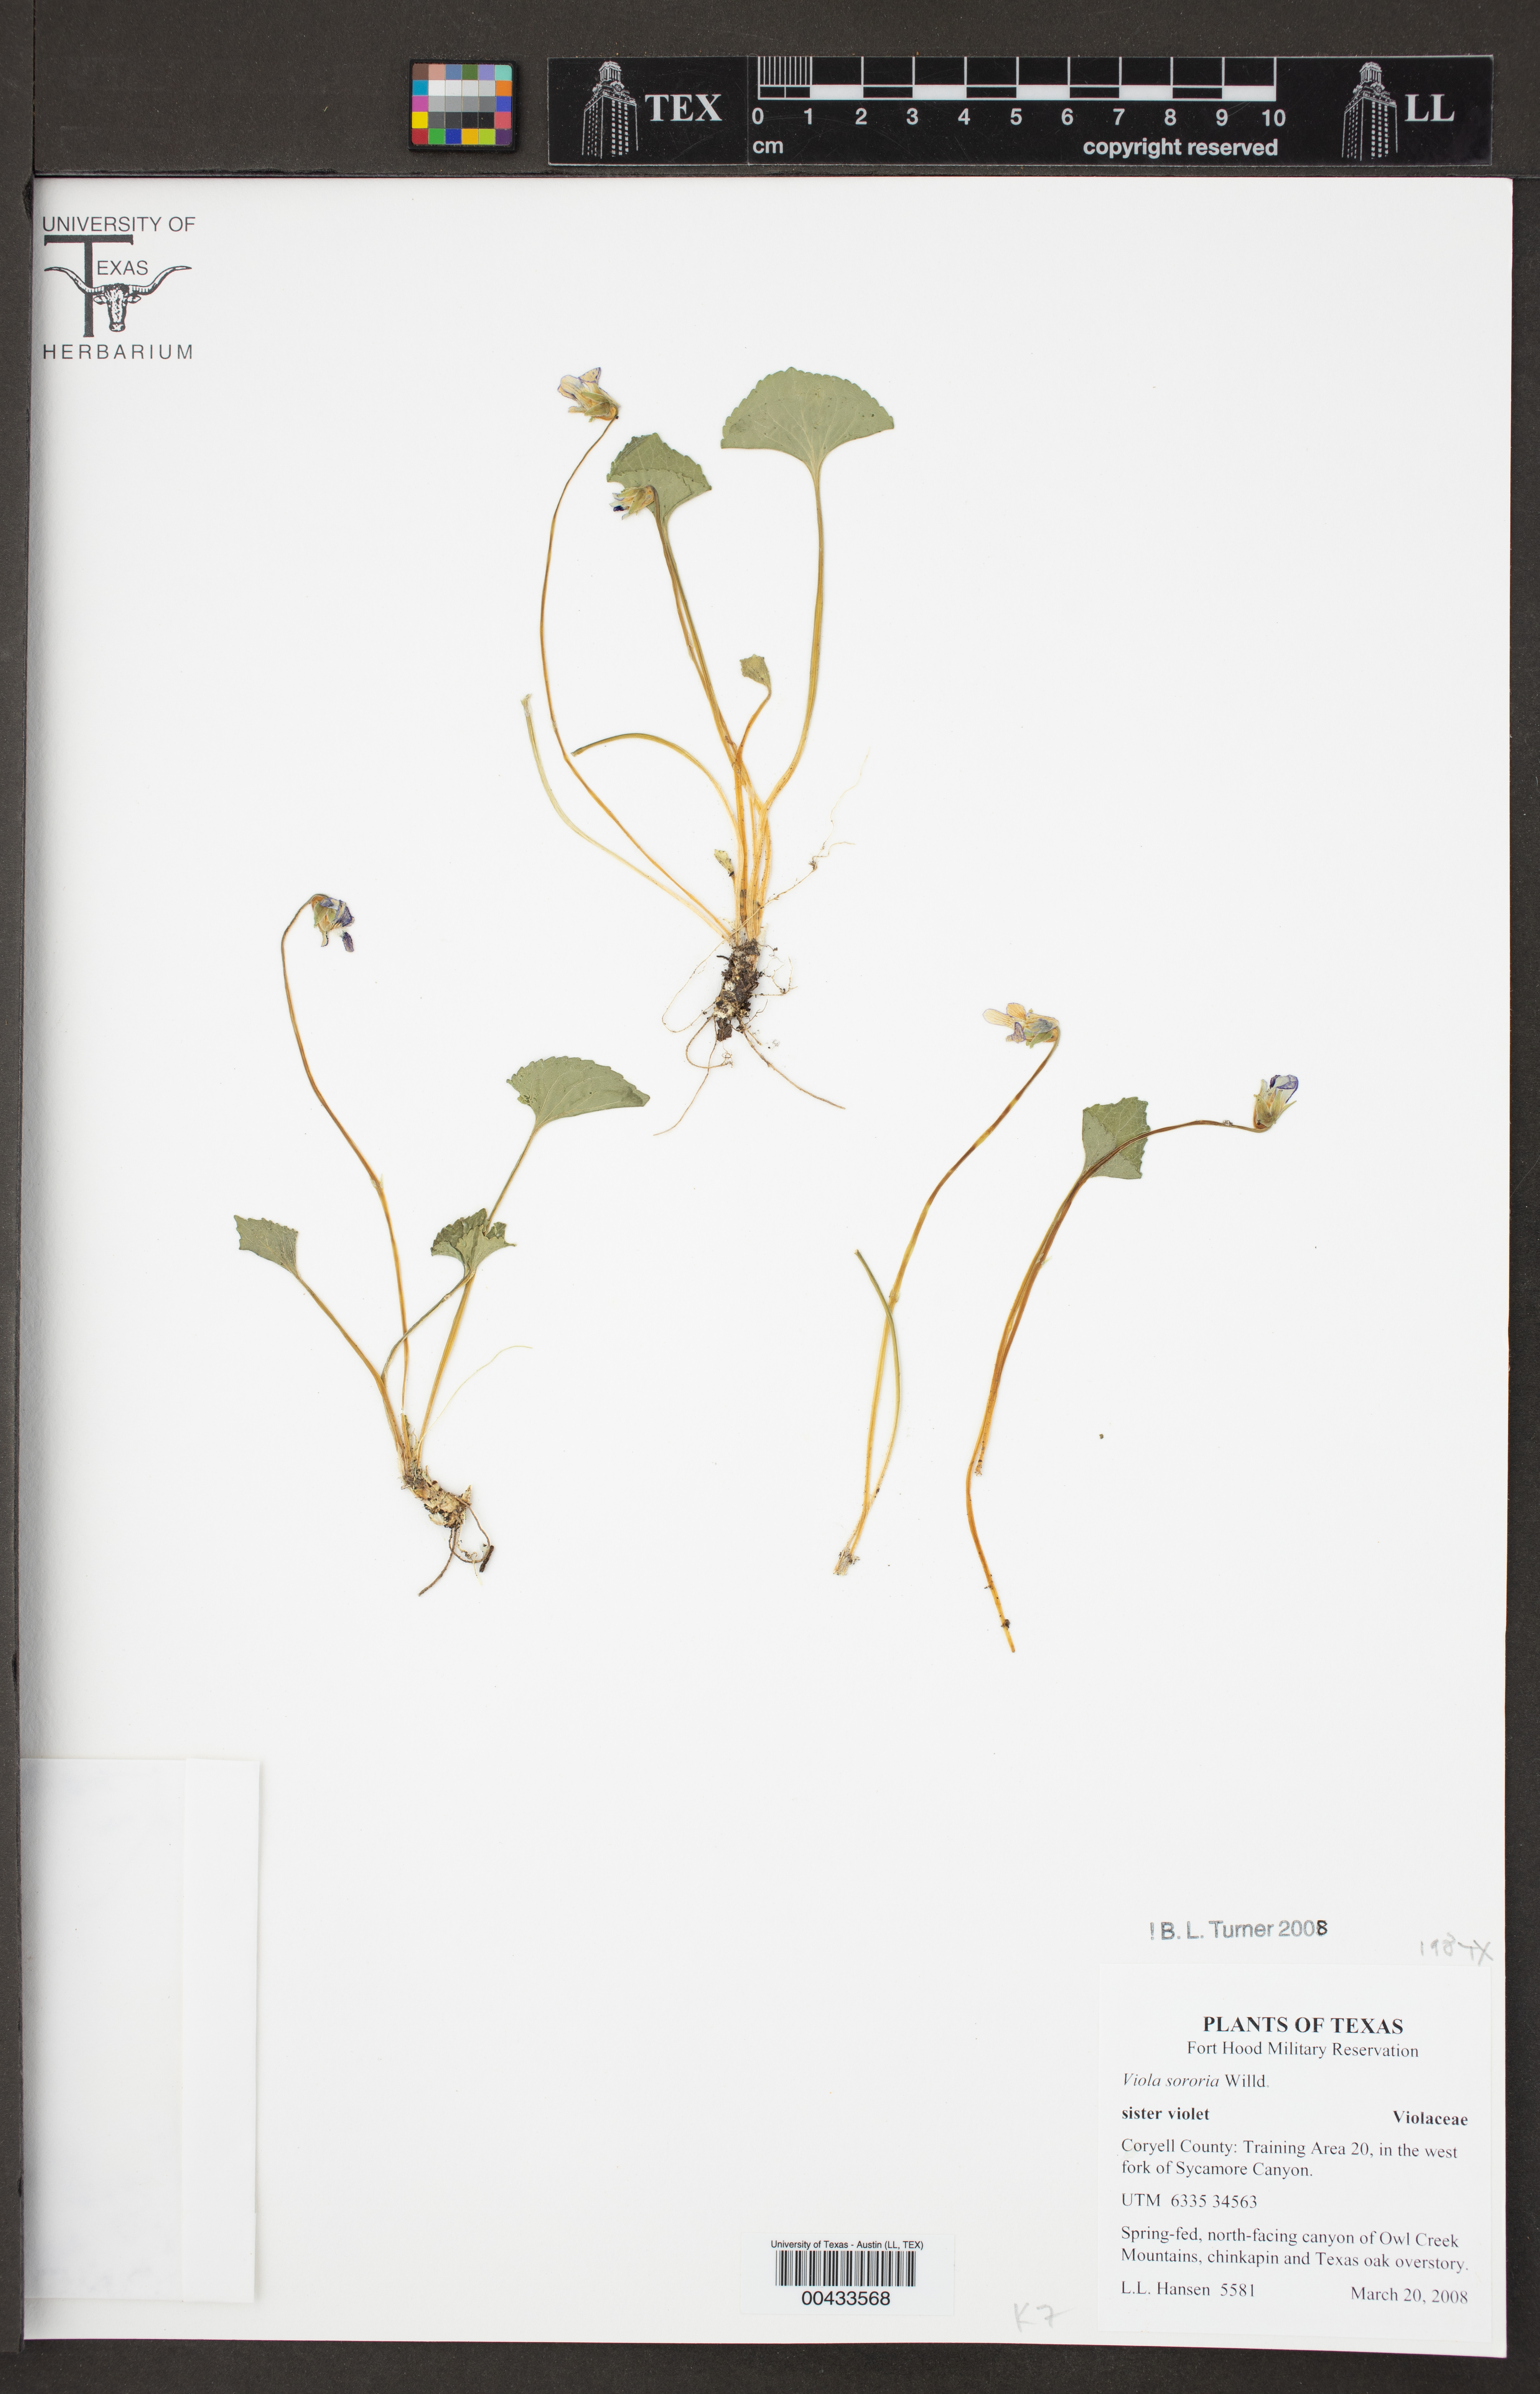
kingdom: Plantae
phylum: Tracheophyta
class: Magnoliopsida
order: Malpighiales
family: Violaceae
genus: Viola
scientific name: Viola sororia
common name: Dooryard violet
